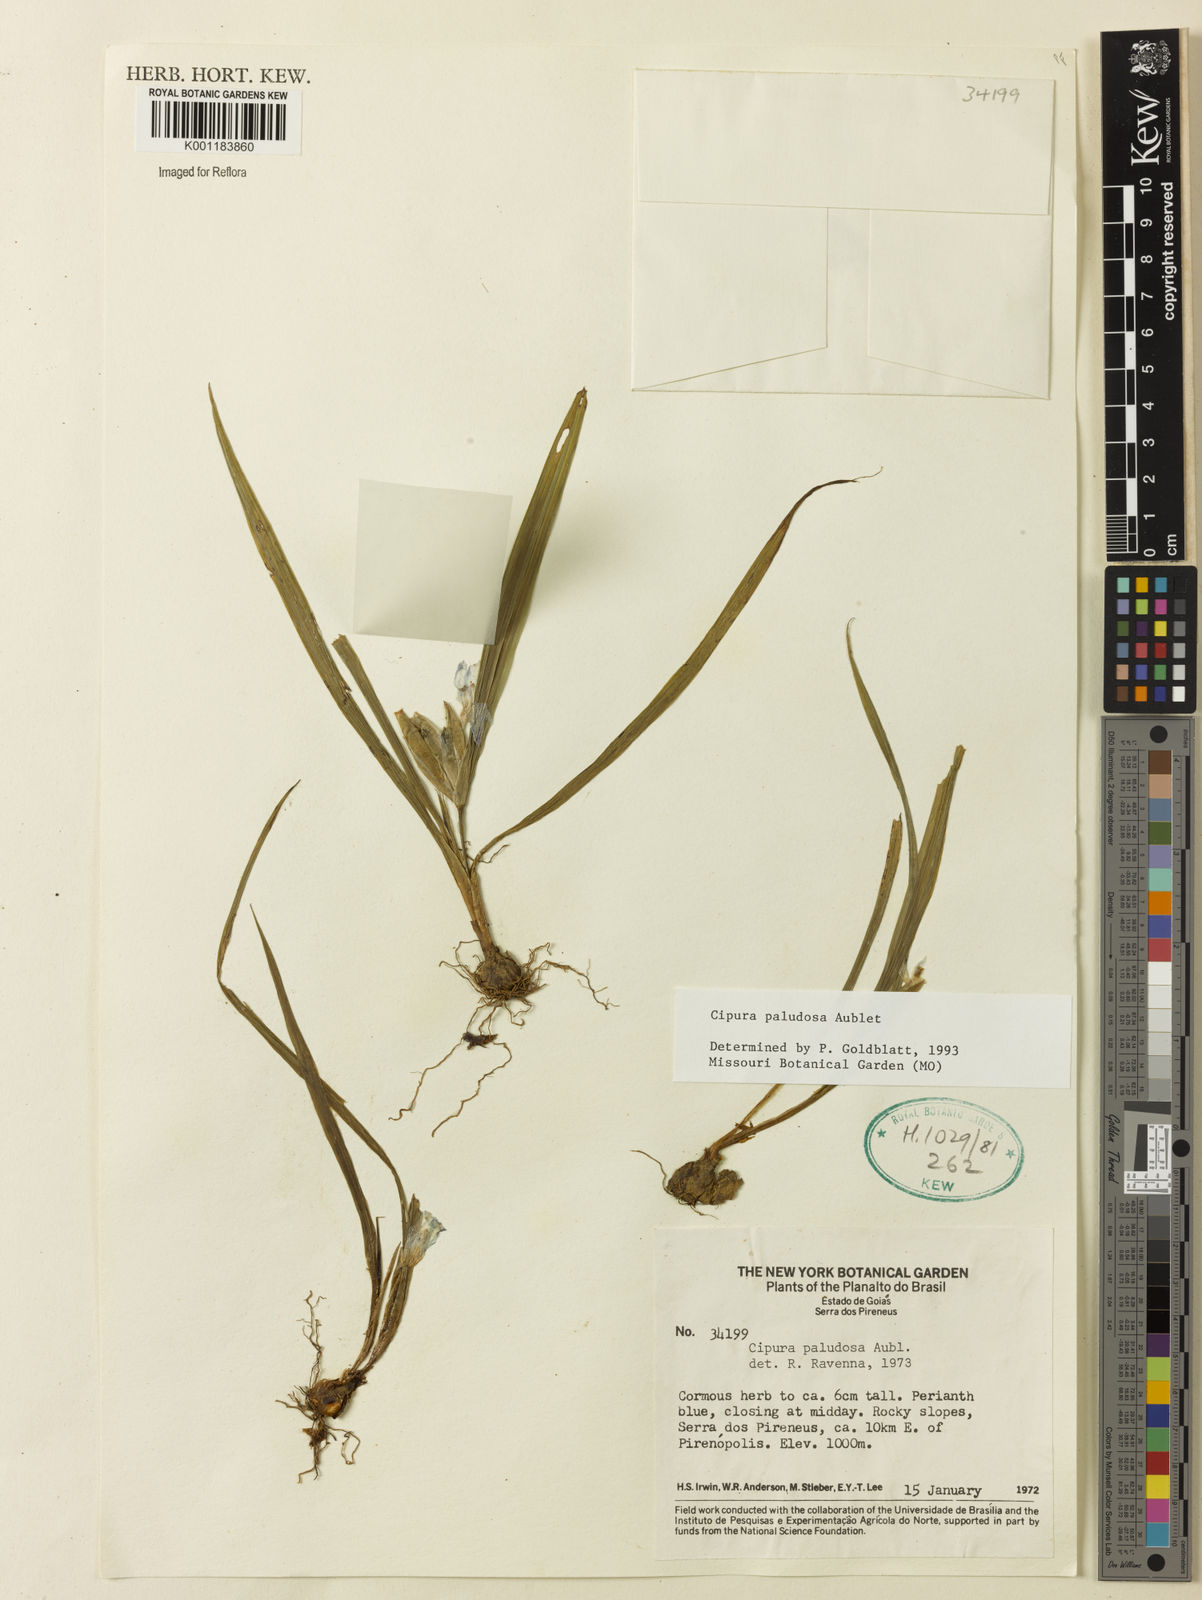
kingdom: Plantae
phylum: Tracheophyta
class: Liliopsida
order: Asparagales
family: Iridaceae
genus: Cipura
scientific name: Cipura paludosa
